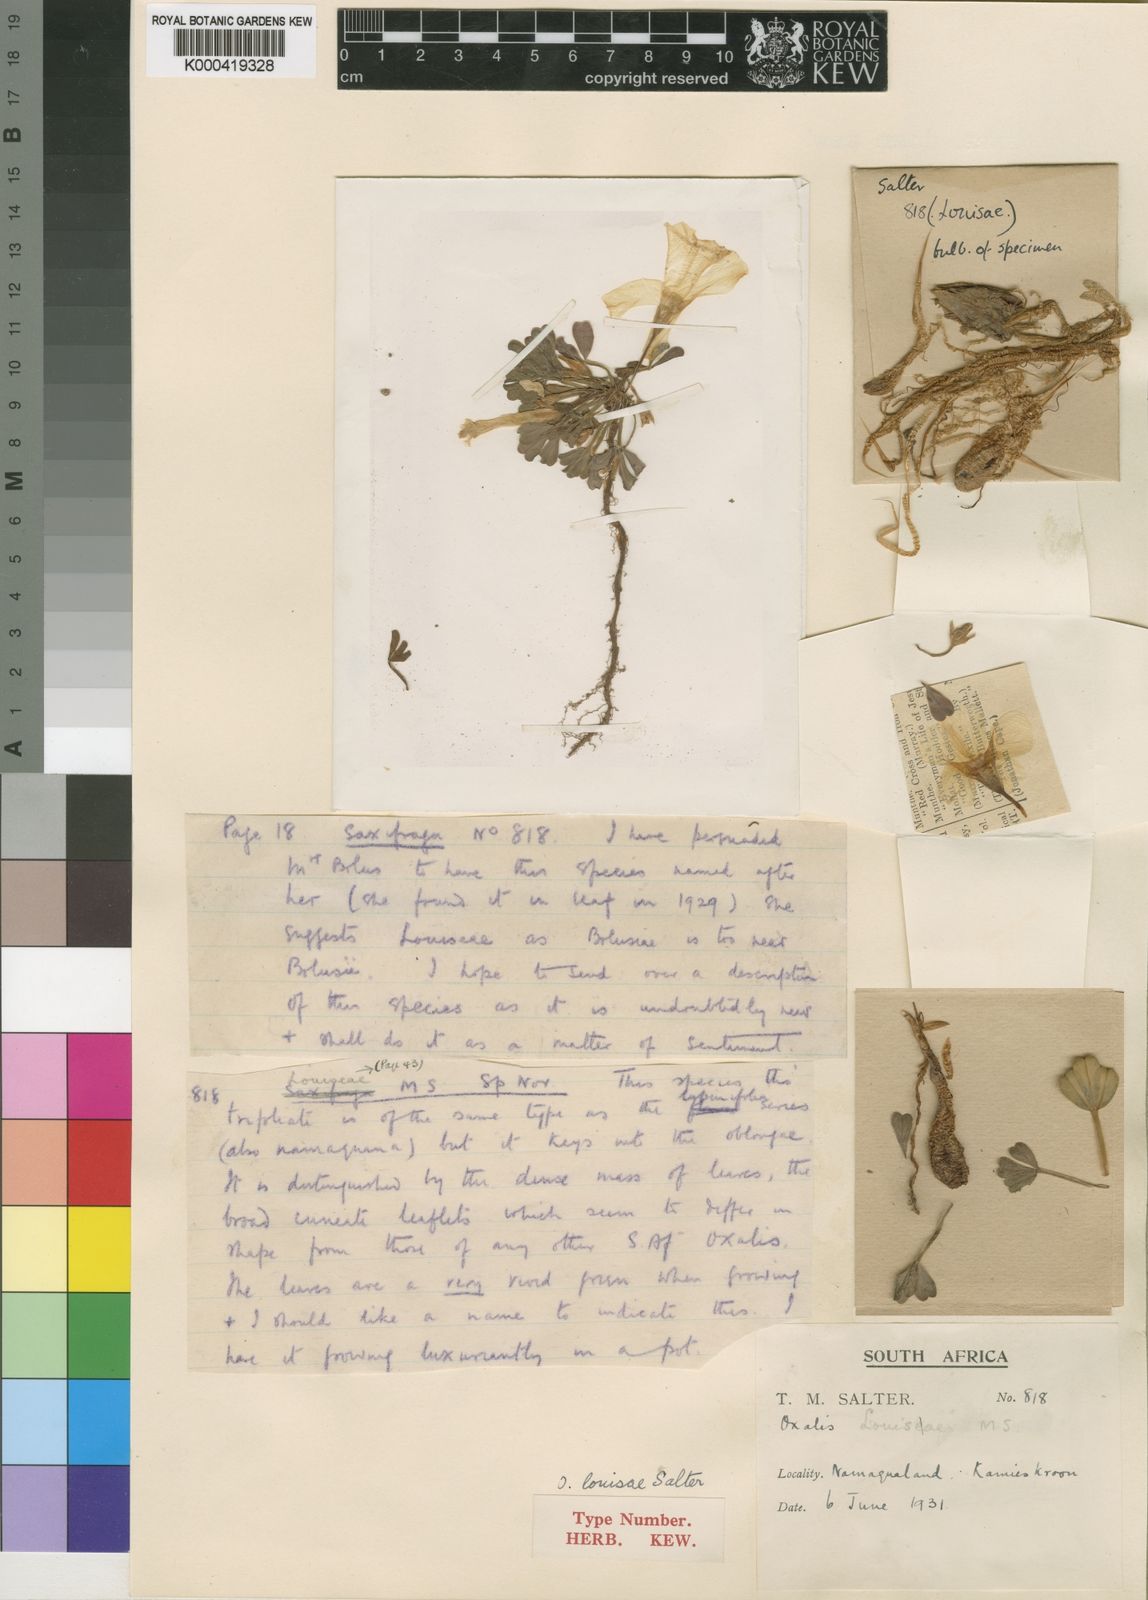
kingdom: Plantae
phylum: Tracheophyta
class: Magnoliopsida
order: Oxalidales
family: Oxalidaceae
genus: Oxalis
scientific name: Oxalis louisae
